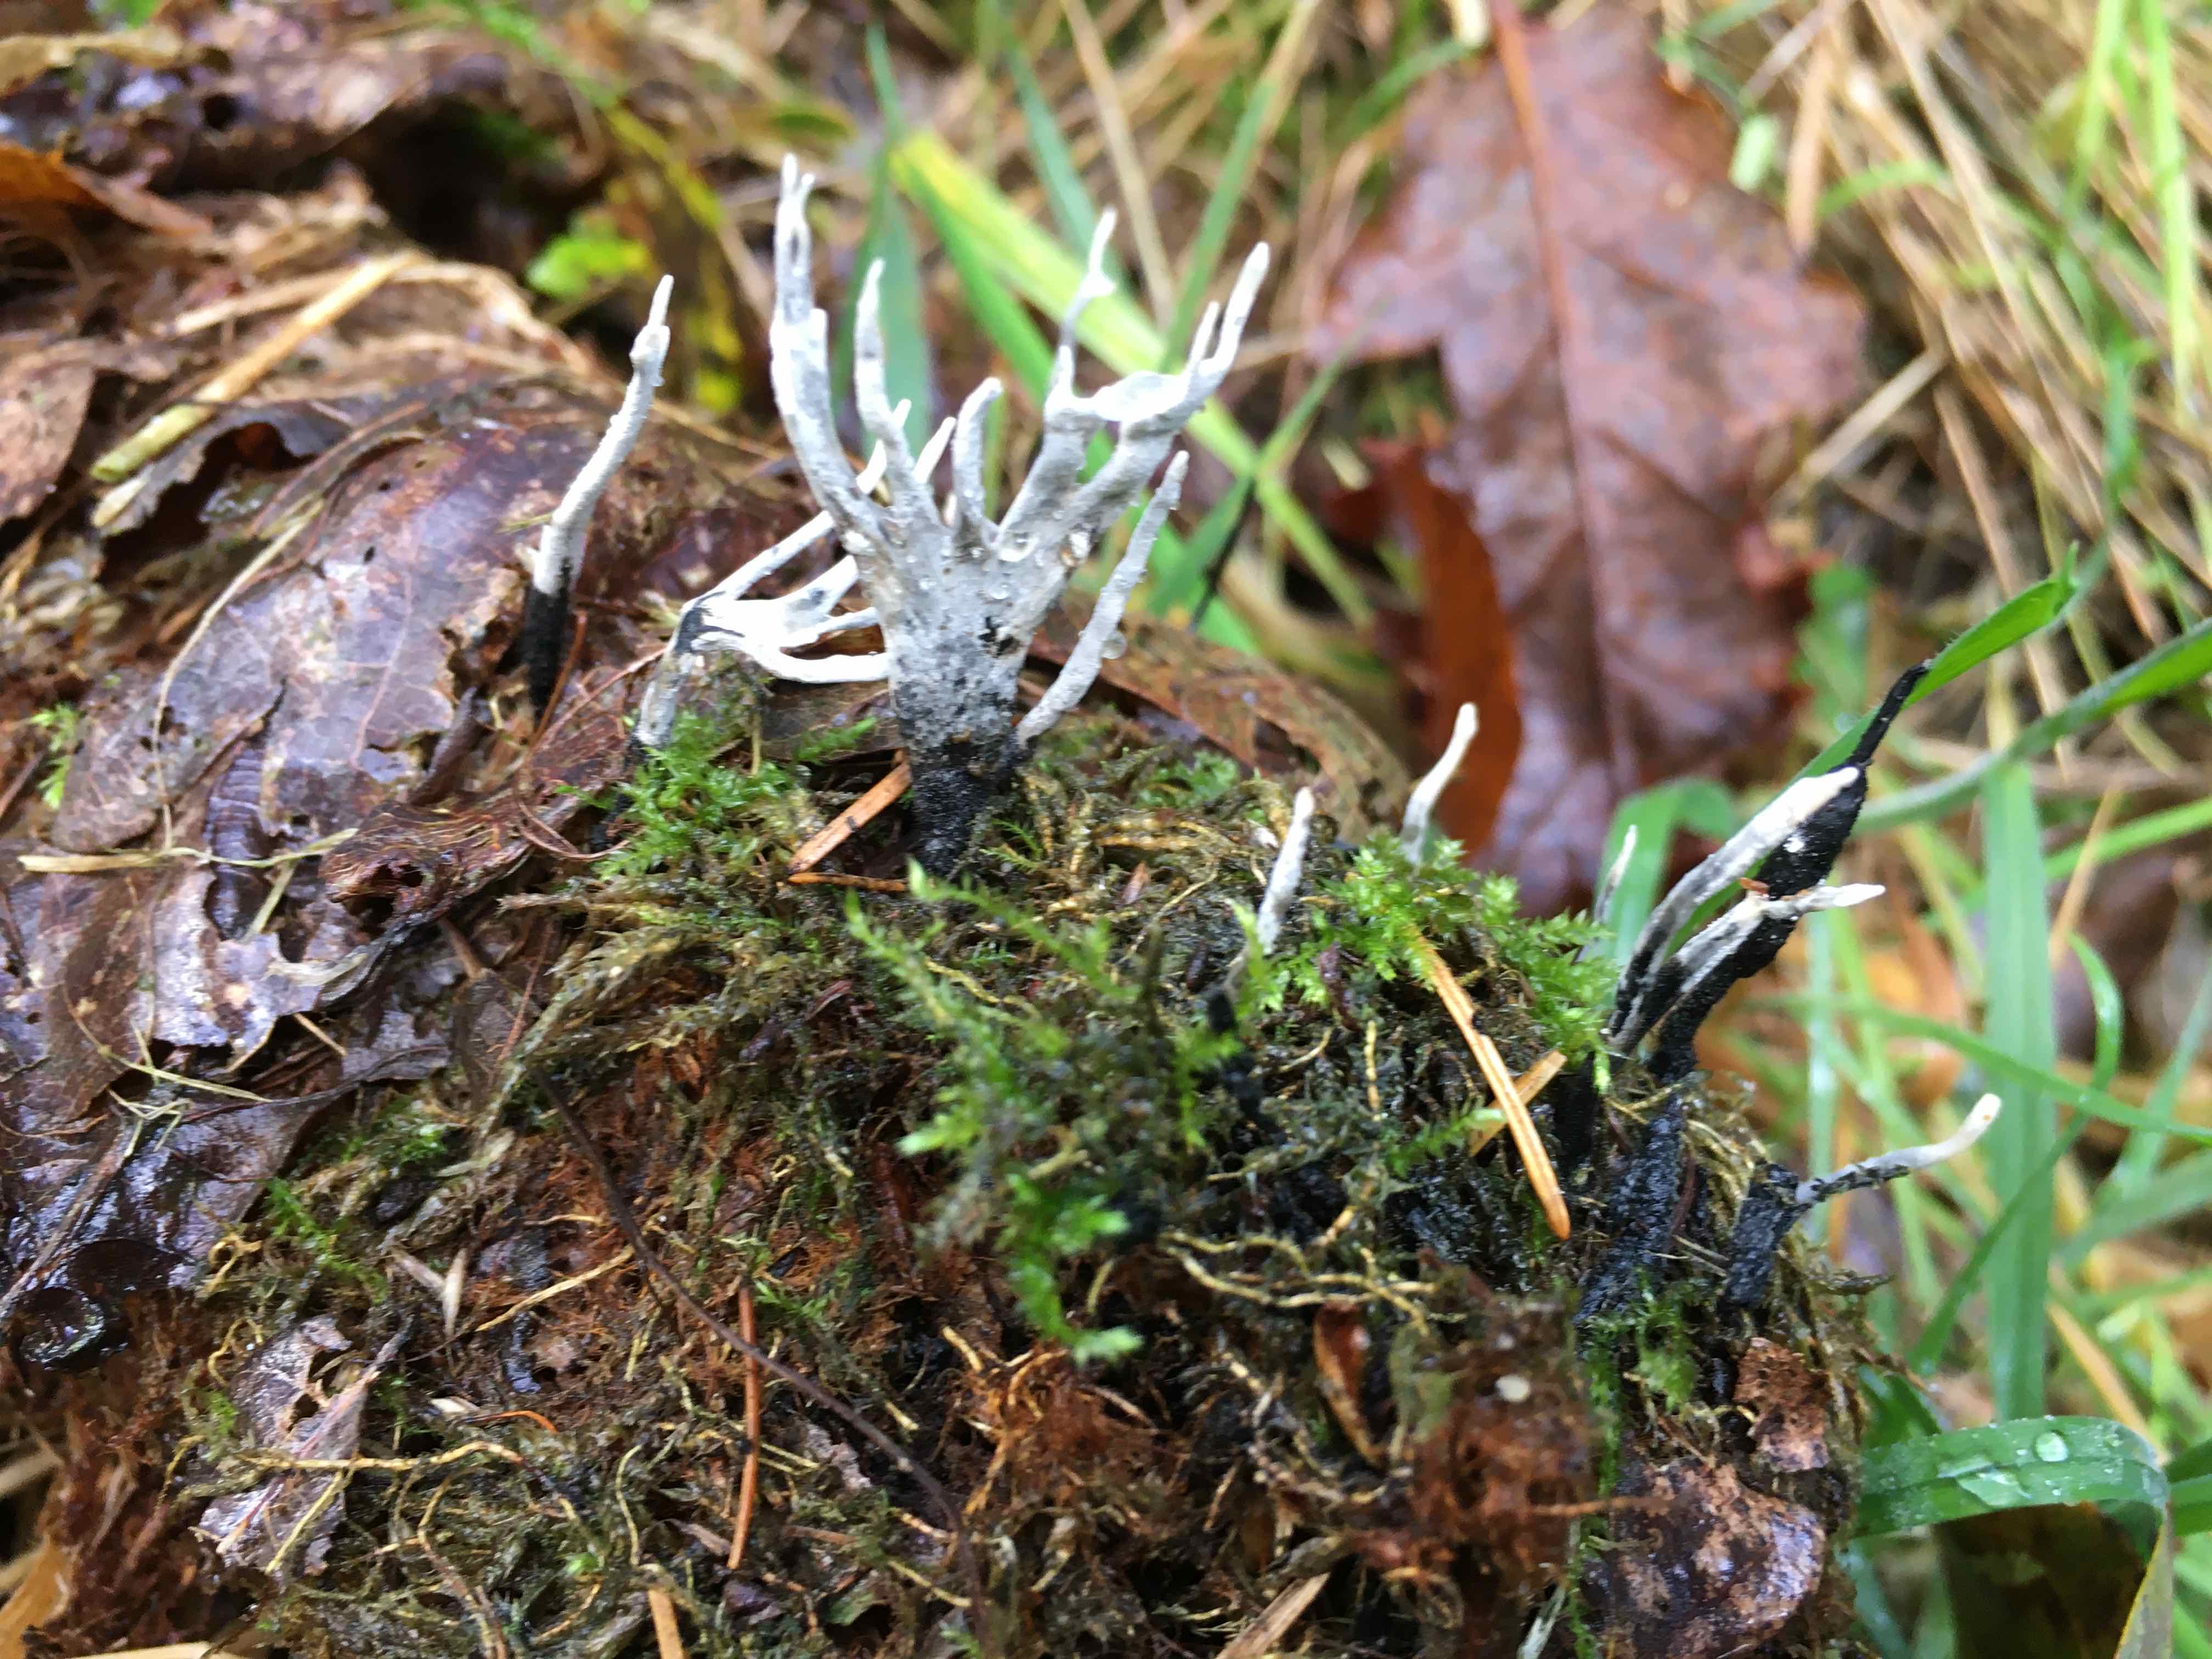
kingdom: Fungi
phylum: Ascomycota
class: Sordariomycetes
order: Xylariales
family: Xylariaceae
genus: Xylaria
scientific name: Xylaria hypoxylon
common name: grenet stødsvamp
